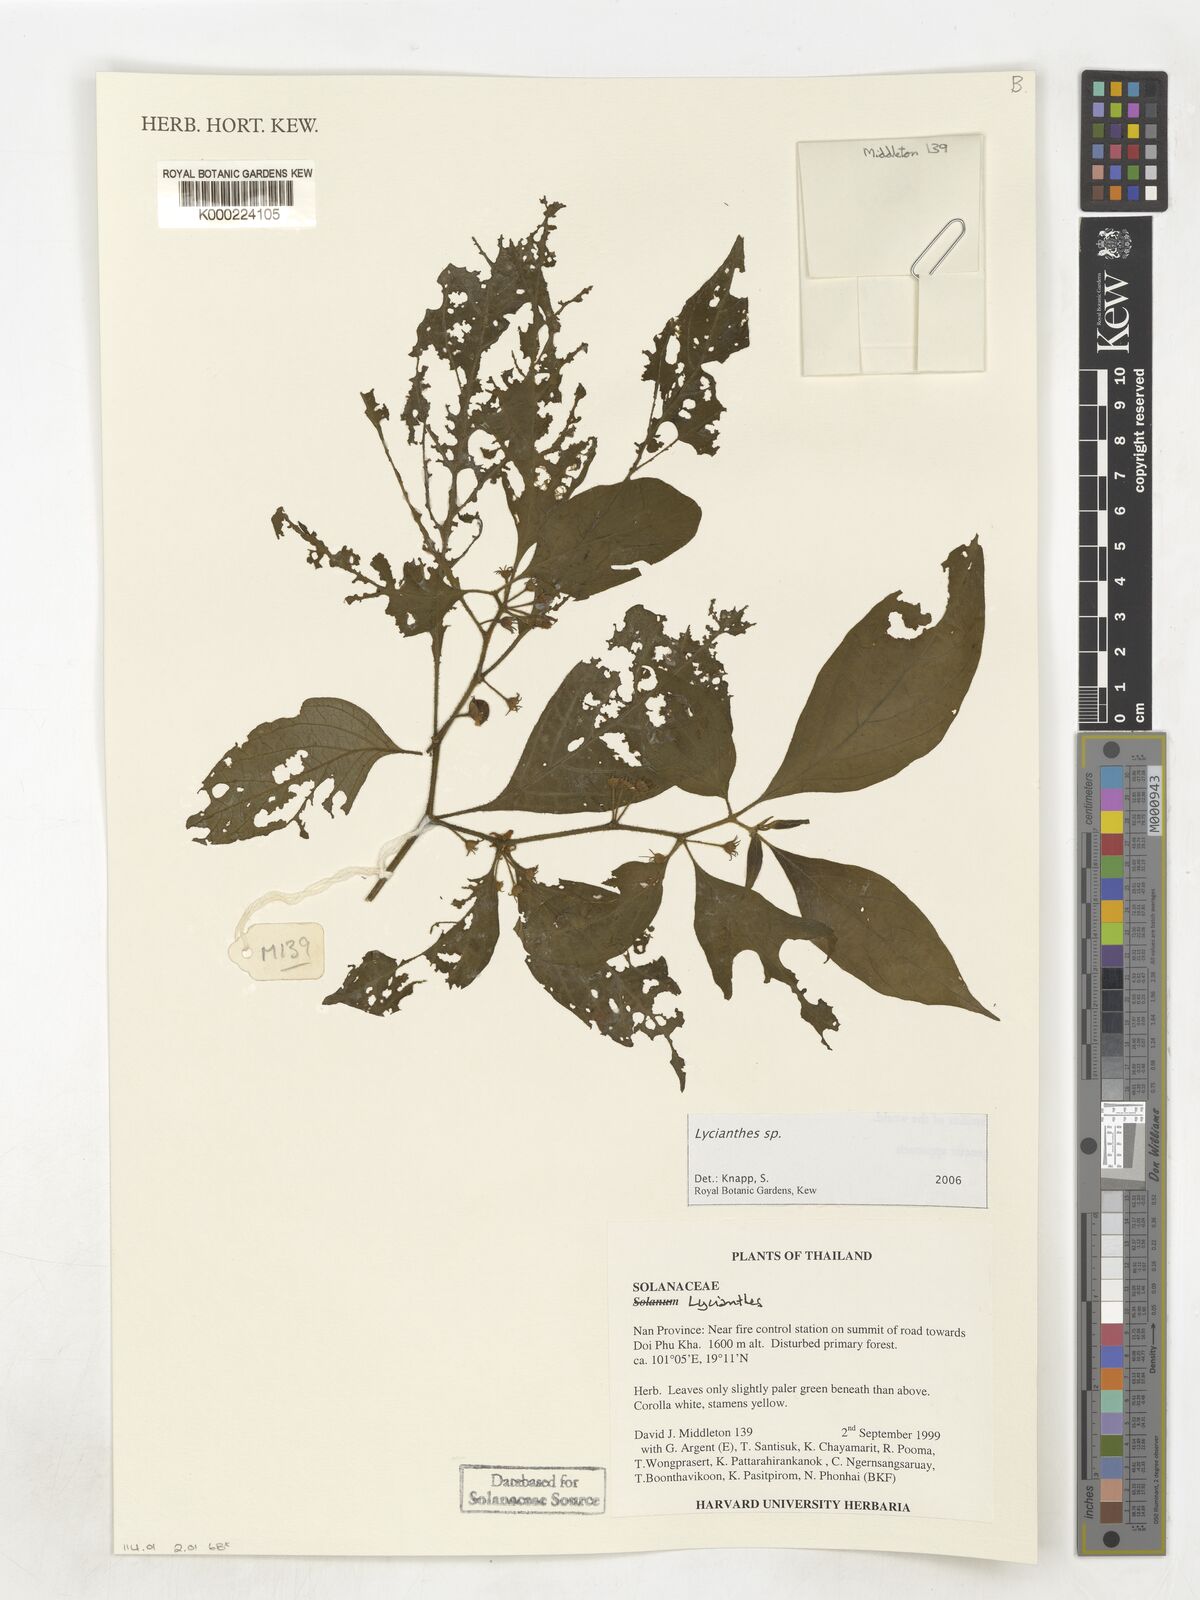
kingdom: Plantae
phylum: Tracheophyta
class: Magnoliopsida
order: Solanales
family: Solanaceae
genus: Lycianthes
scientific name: Lycianthes
